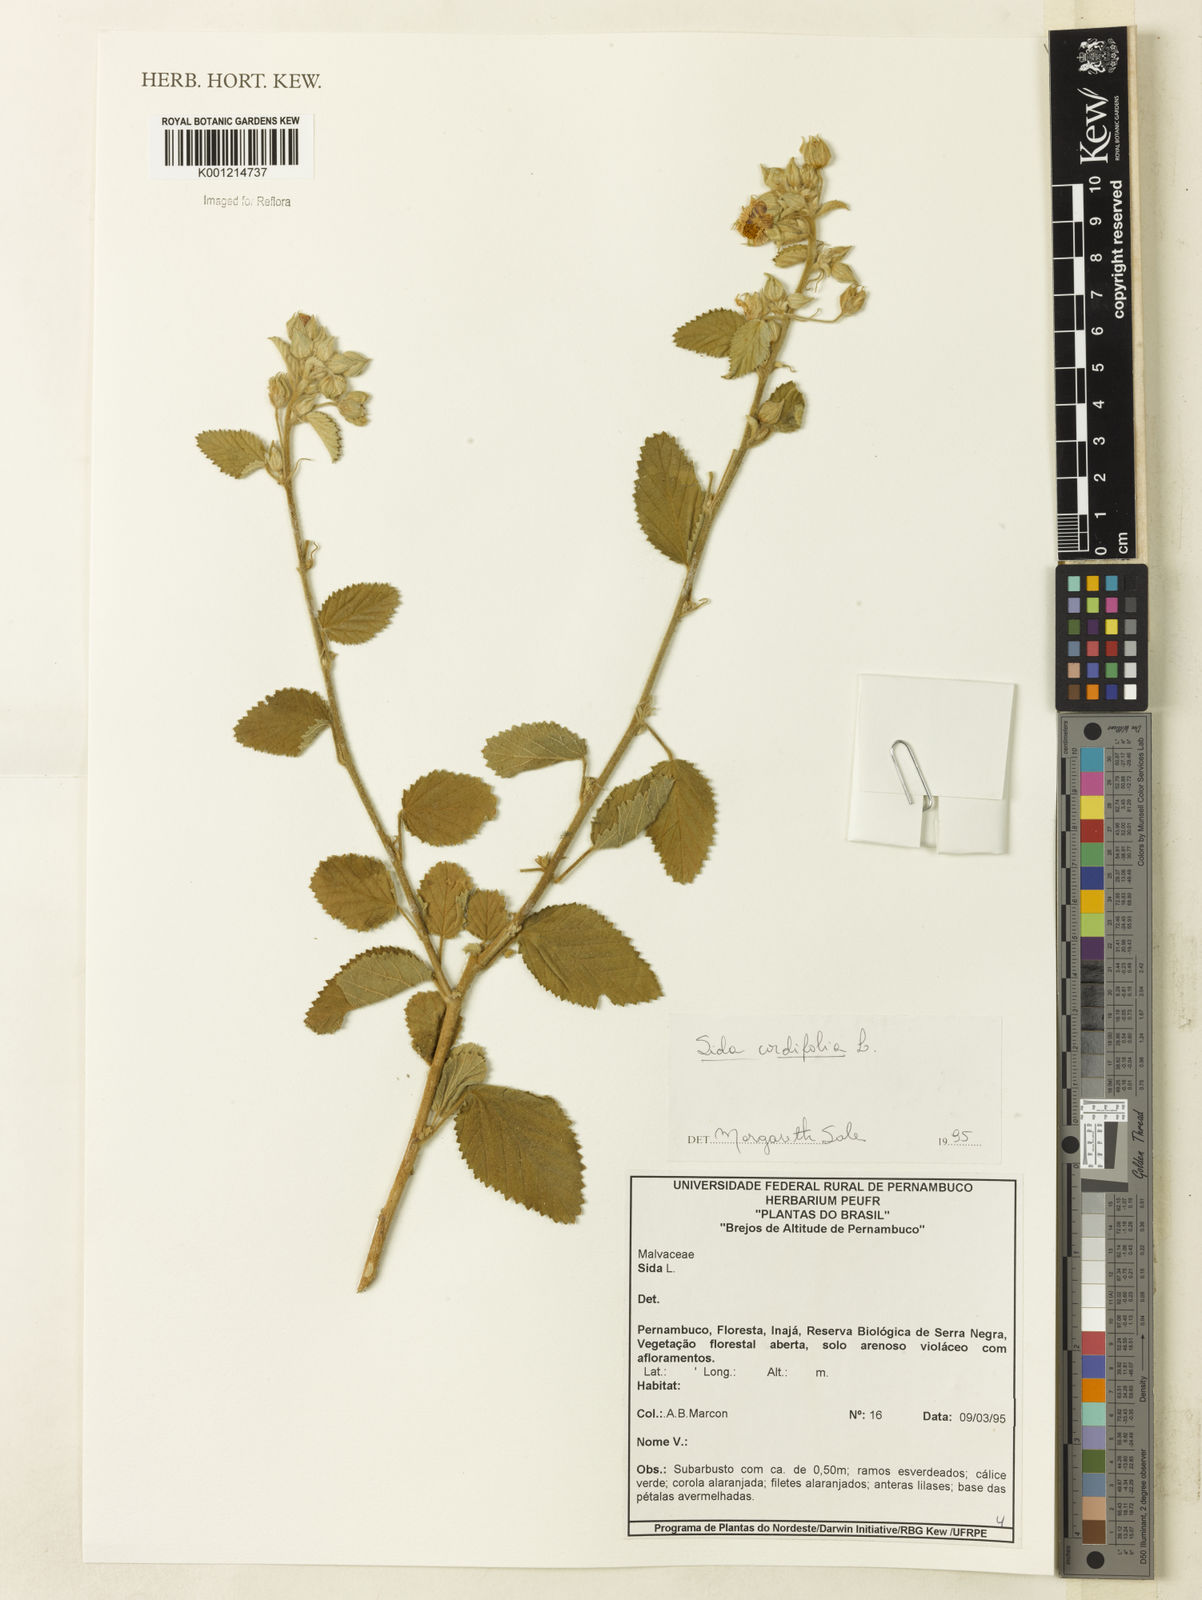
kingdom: Plantae
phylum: Tracheophyta
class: Magnoliopsida
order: Malvales
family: Malvaceae
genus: Sida
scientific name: Sida cordifolia
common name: Ilima
